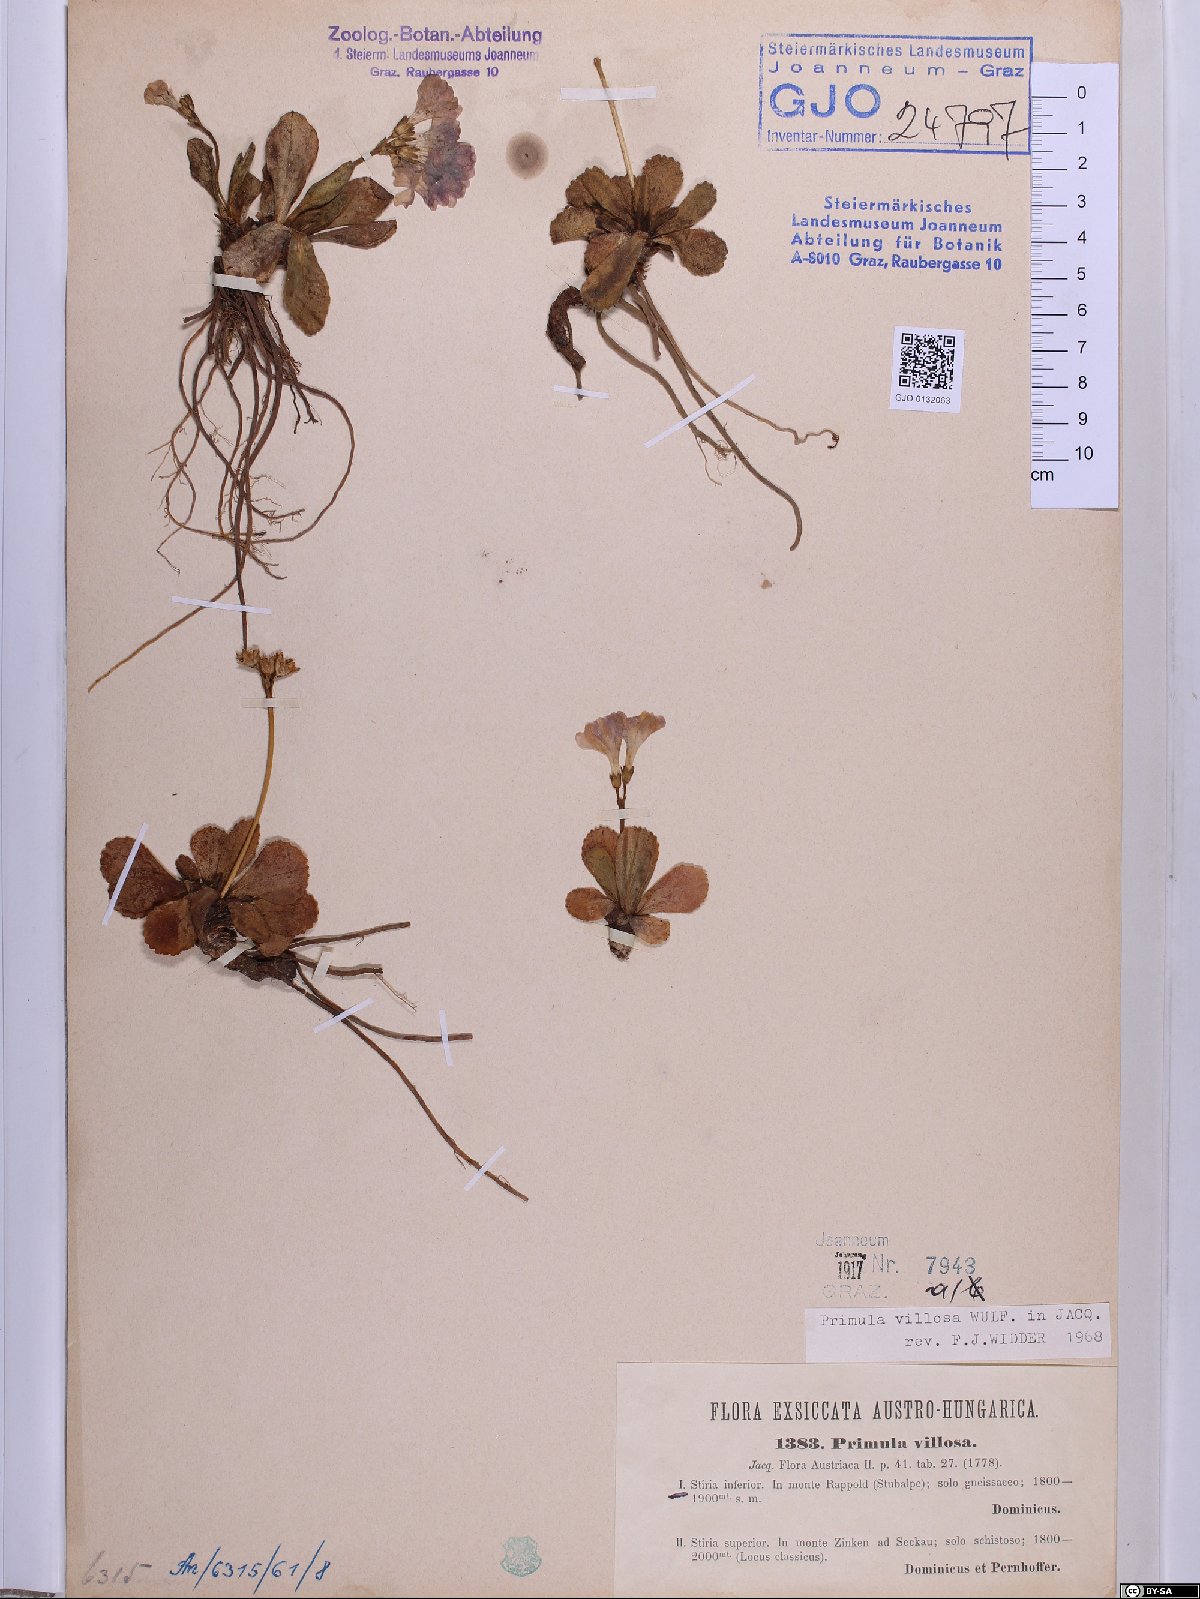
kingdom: Plantae
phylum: Tracheophyta
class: Magnoliopsida
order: Ericales
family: Primulaceae
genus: Primula
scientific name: Primula villosa
